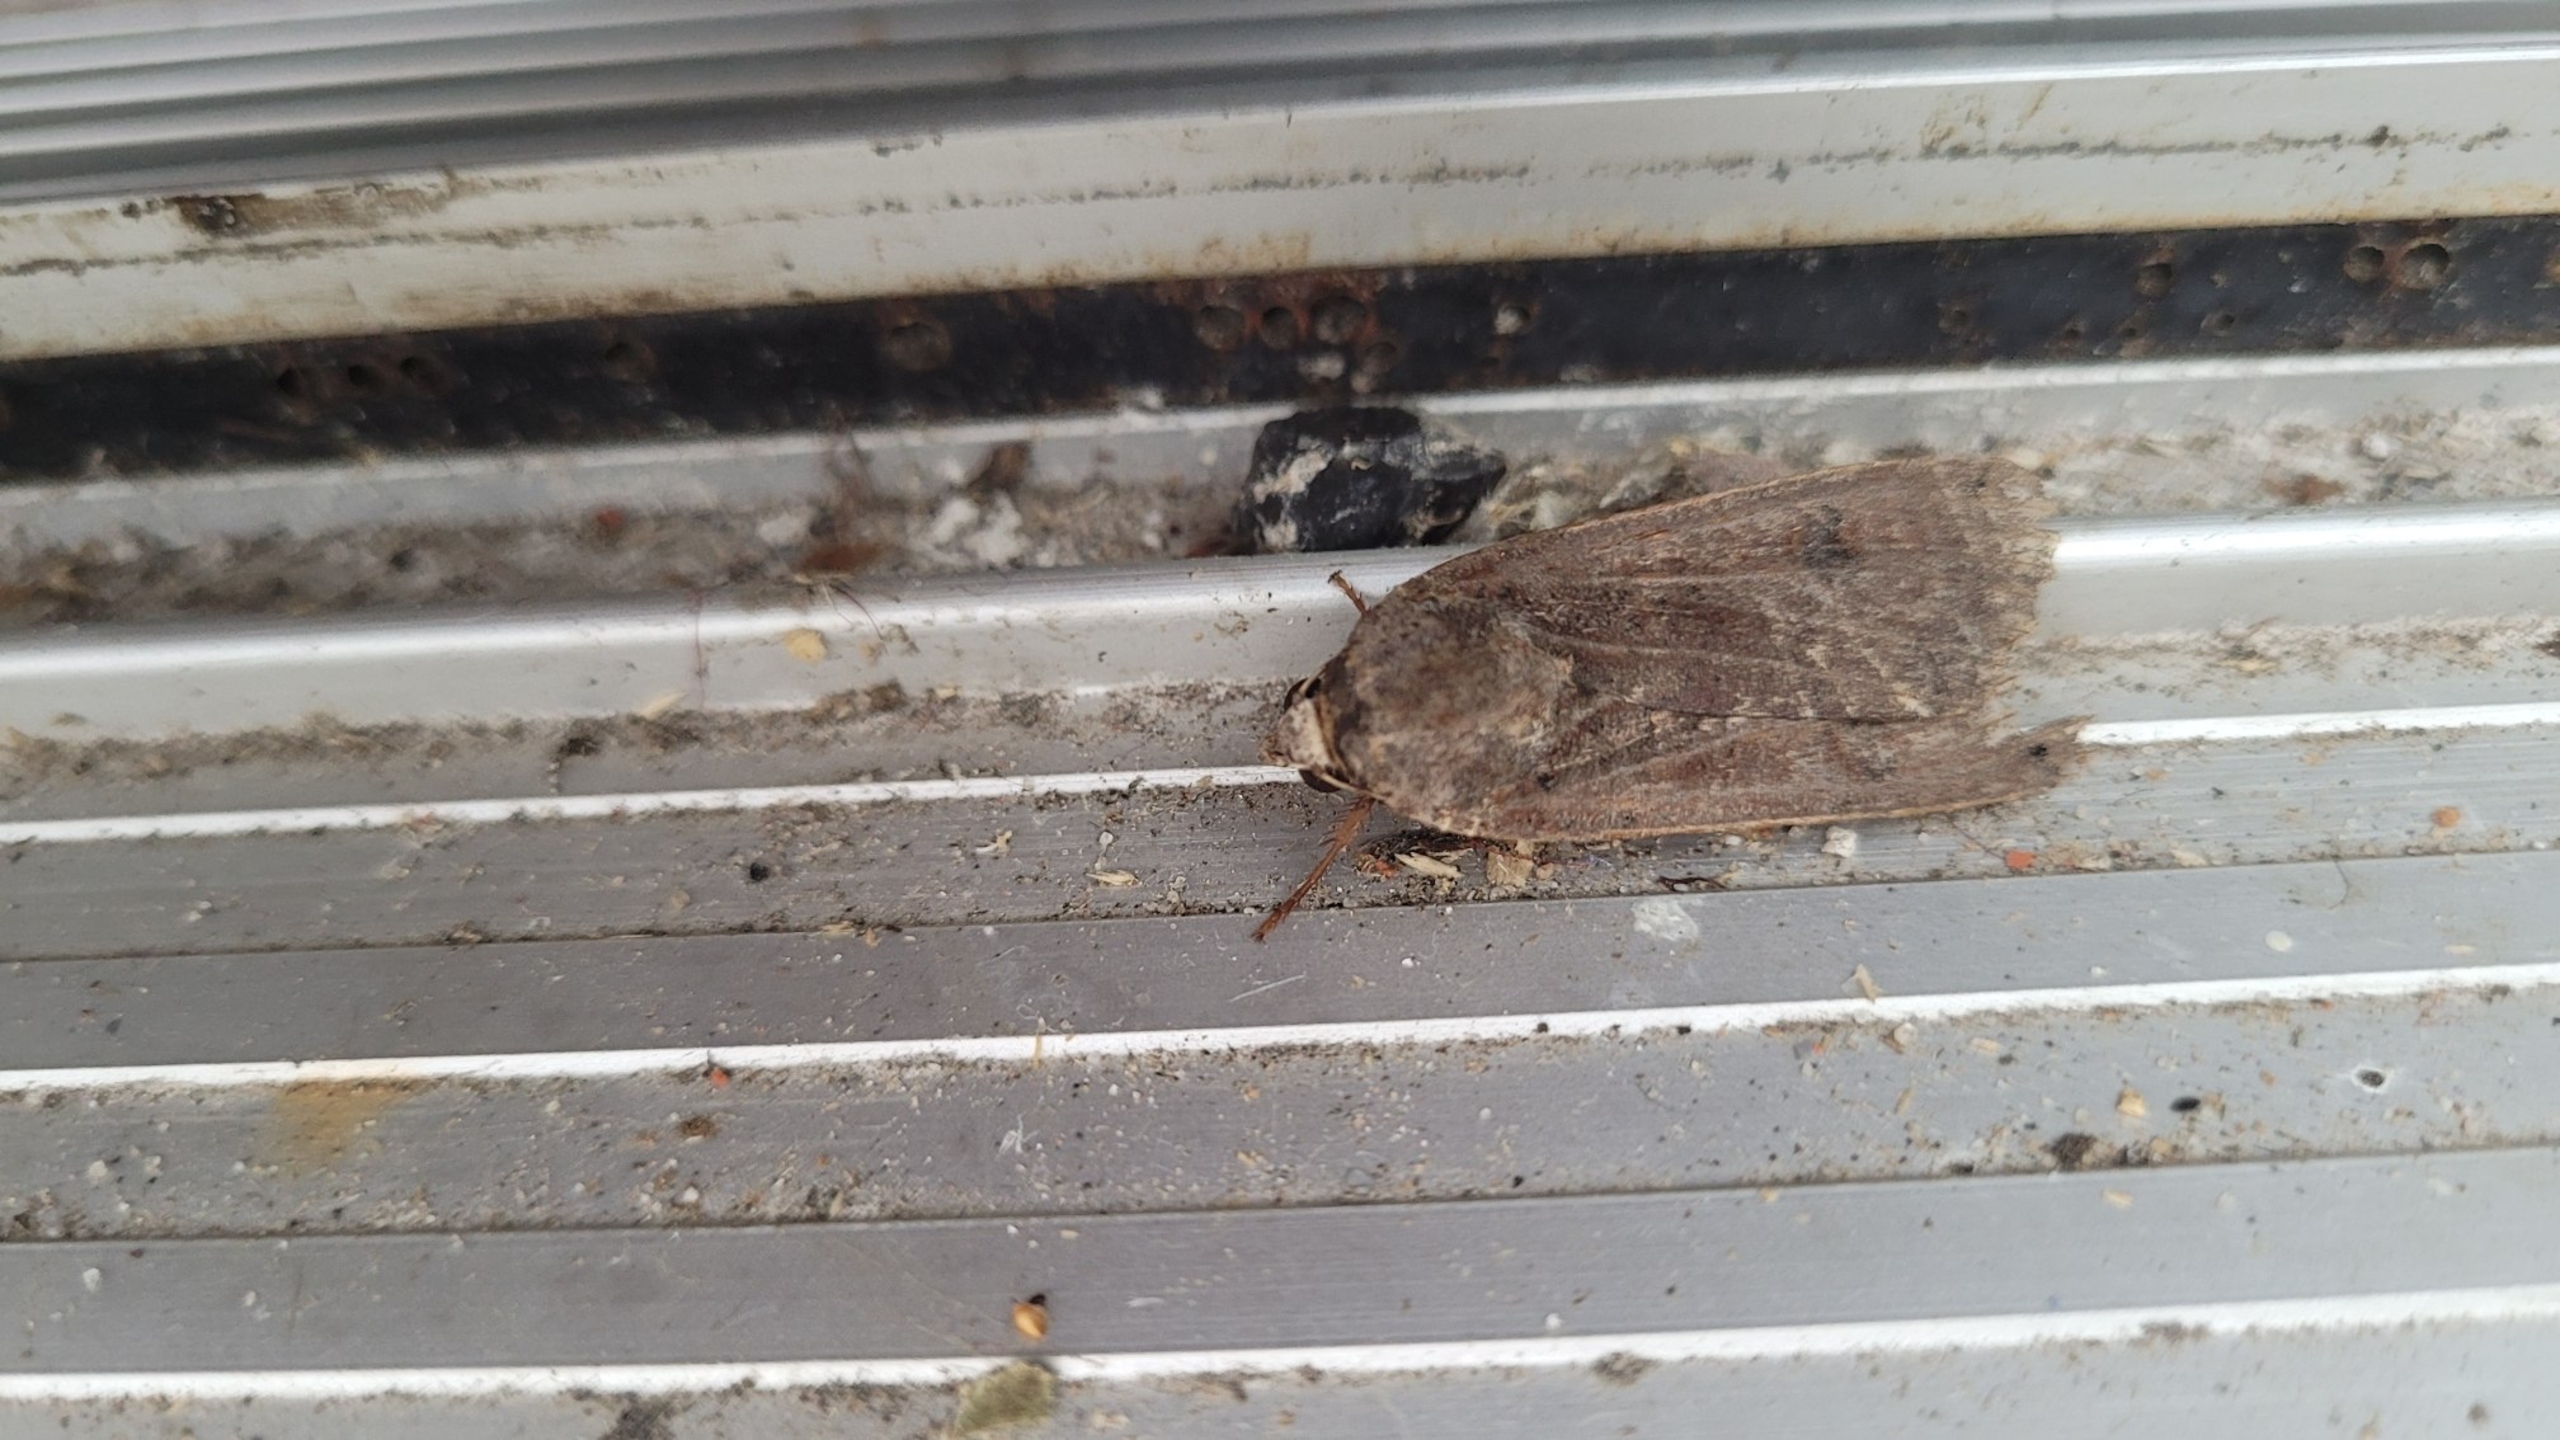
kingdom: Animalia
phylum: Arthropoda
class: Insecta
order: Lepidoptera
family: Noctuidae
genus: Noctua
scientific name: Noctua pronuba
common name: Stor smutugle
